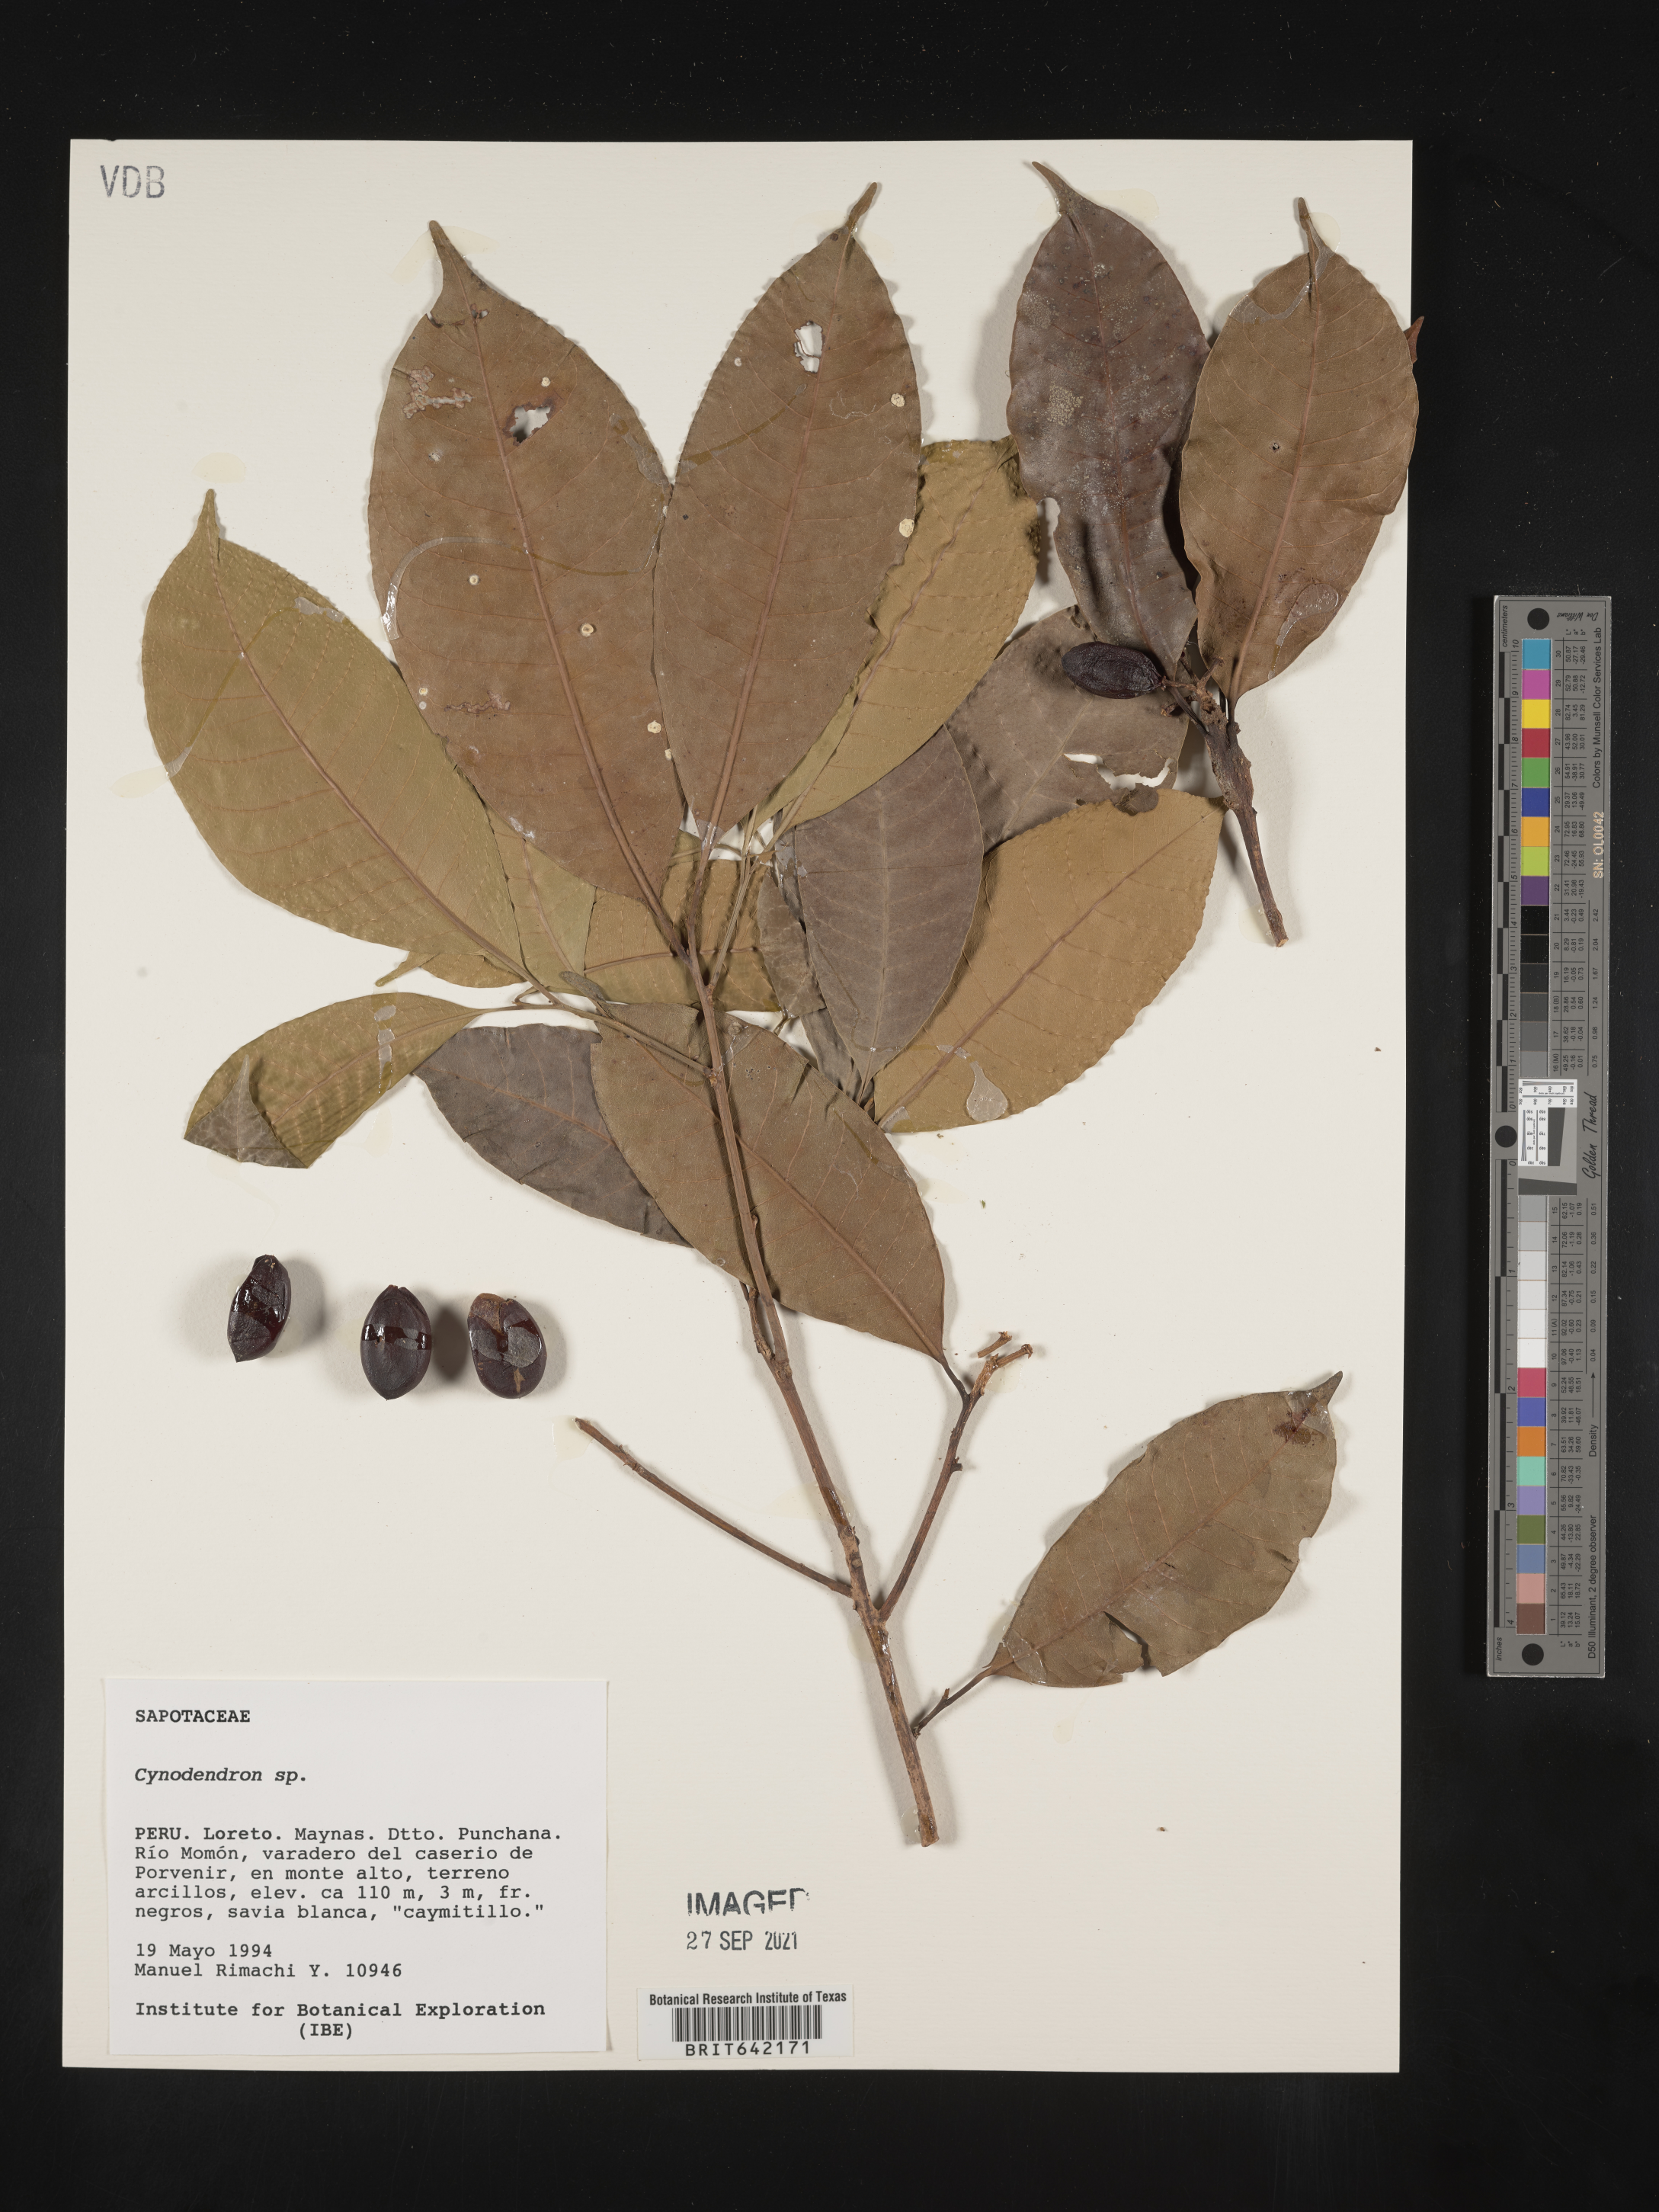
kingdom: Plantae
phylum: Tracheophyta
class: Magnoliopsida
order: Ericales
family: Sapotaceae
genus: Chrysophyllum
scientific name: Chrysophyllum
